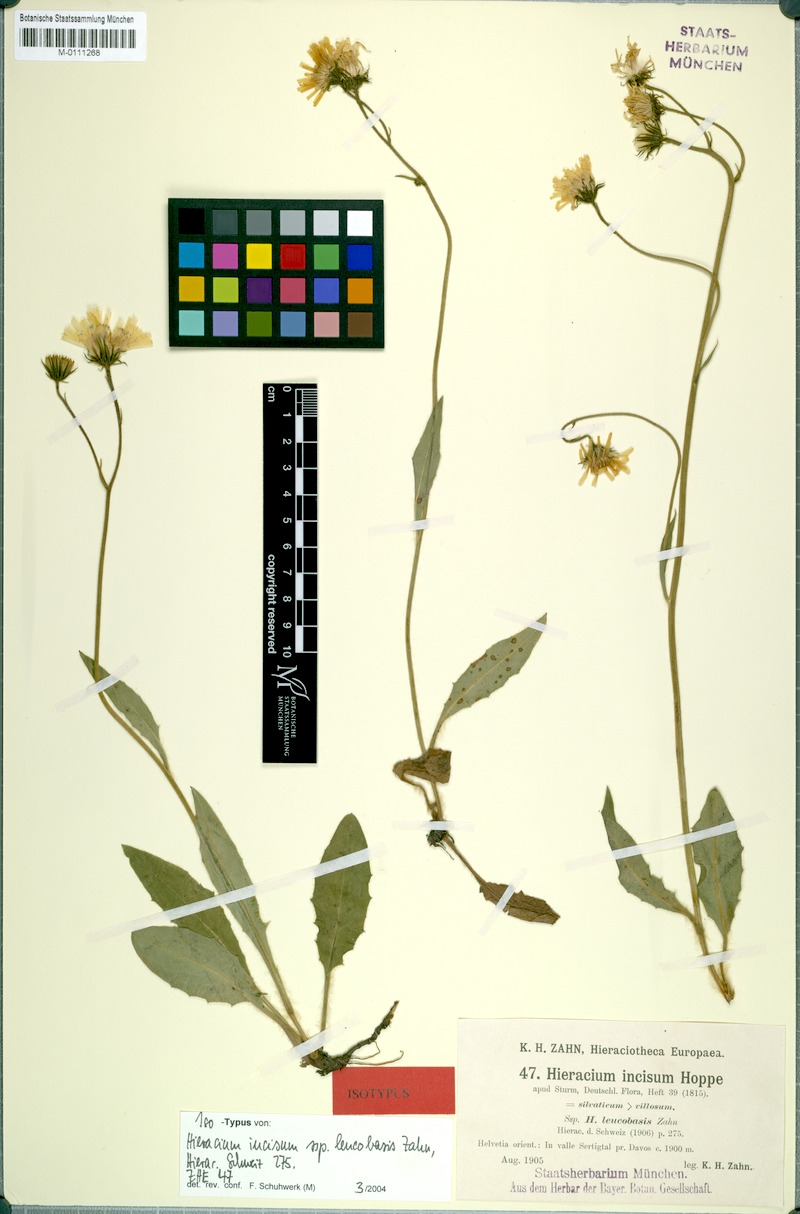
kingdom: Plantae
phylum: Tracheophyta
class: Magnoliopsida
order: Asterales
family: Asteraceae
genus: Hieracium
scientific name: Hieracium pallescens
